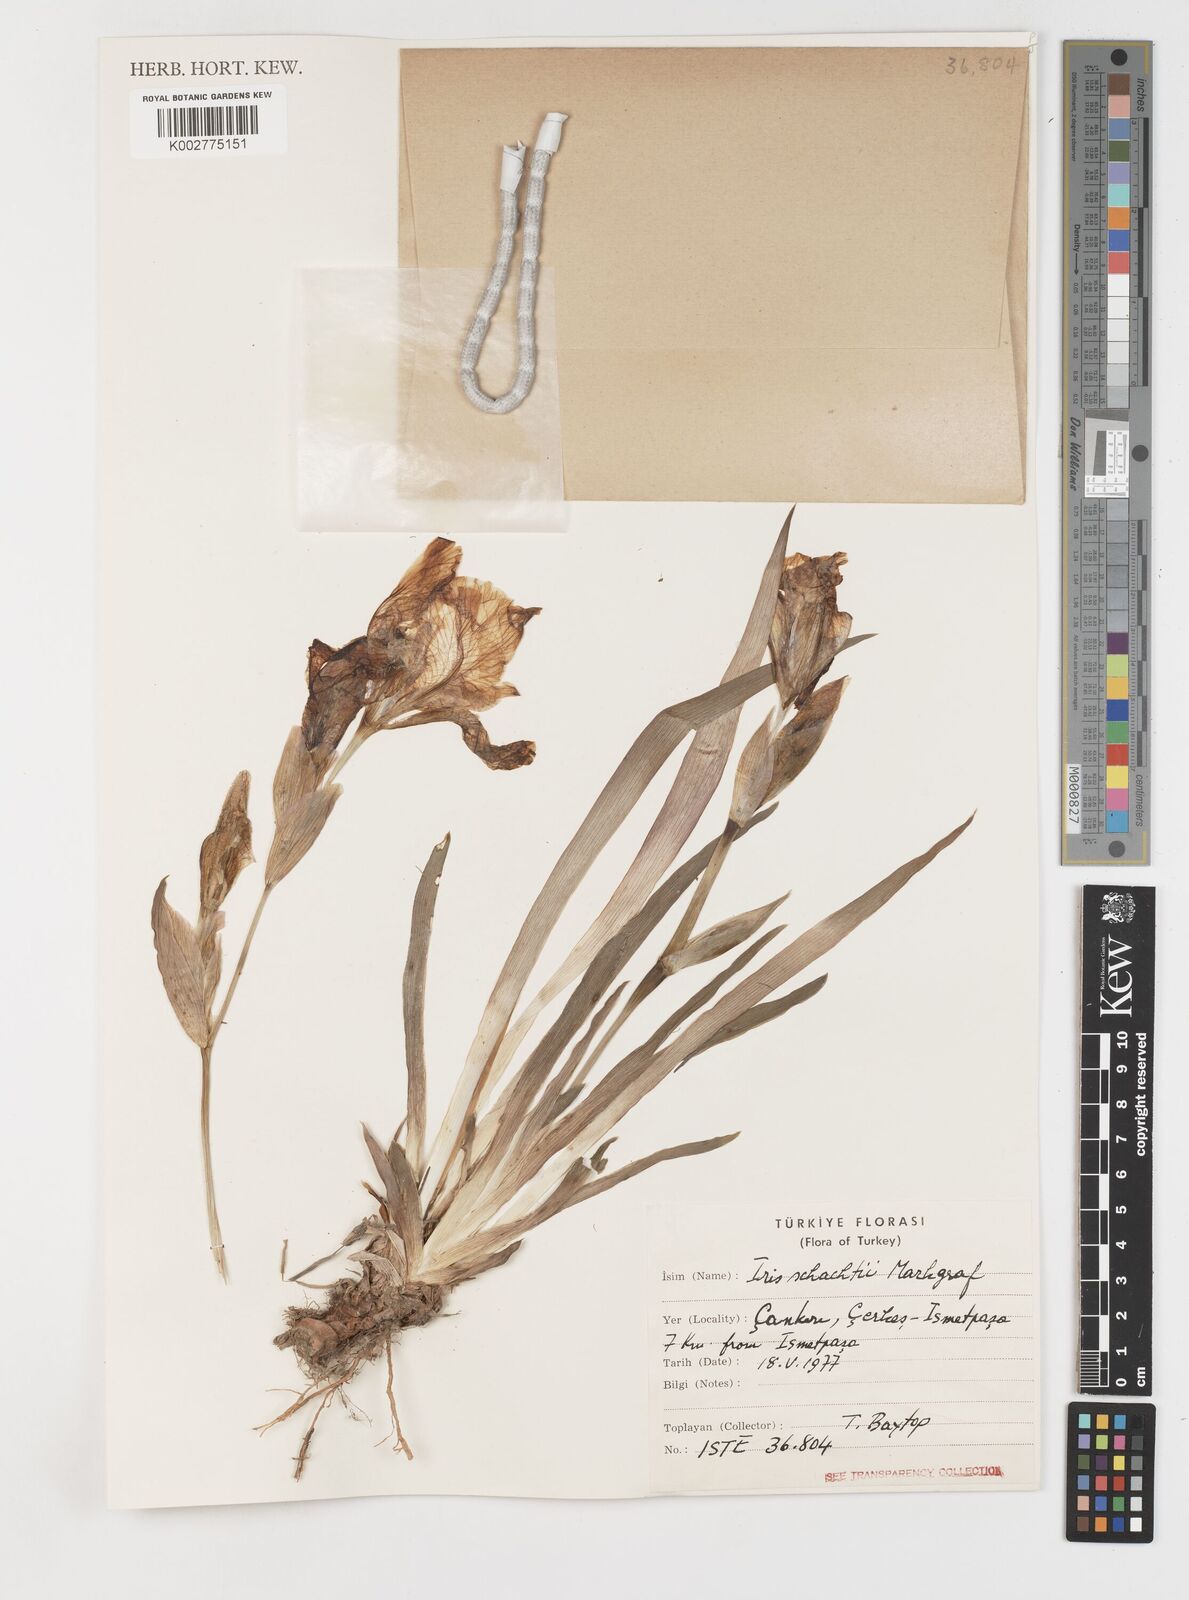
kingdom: Plantae
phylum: Tracheophyta
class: Liliopsida
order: Asparagales
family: Iridaceae
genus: Iris
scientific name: Iris schachtii
